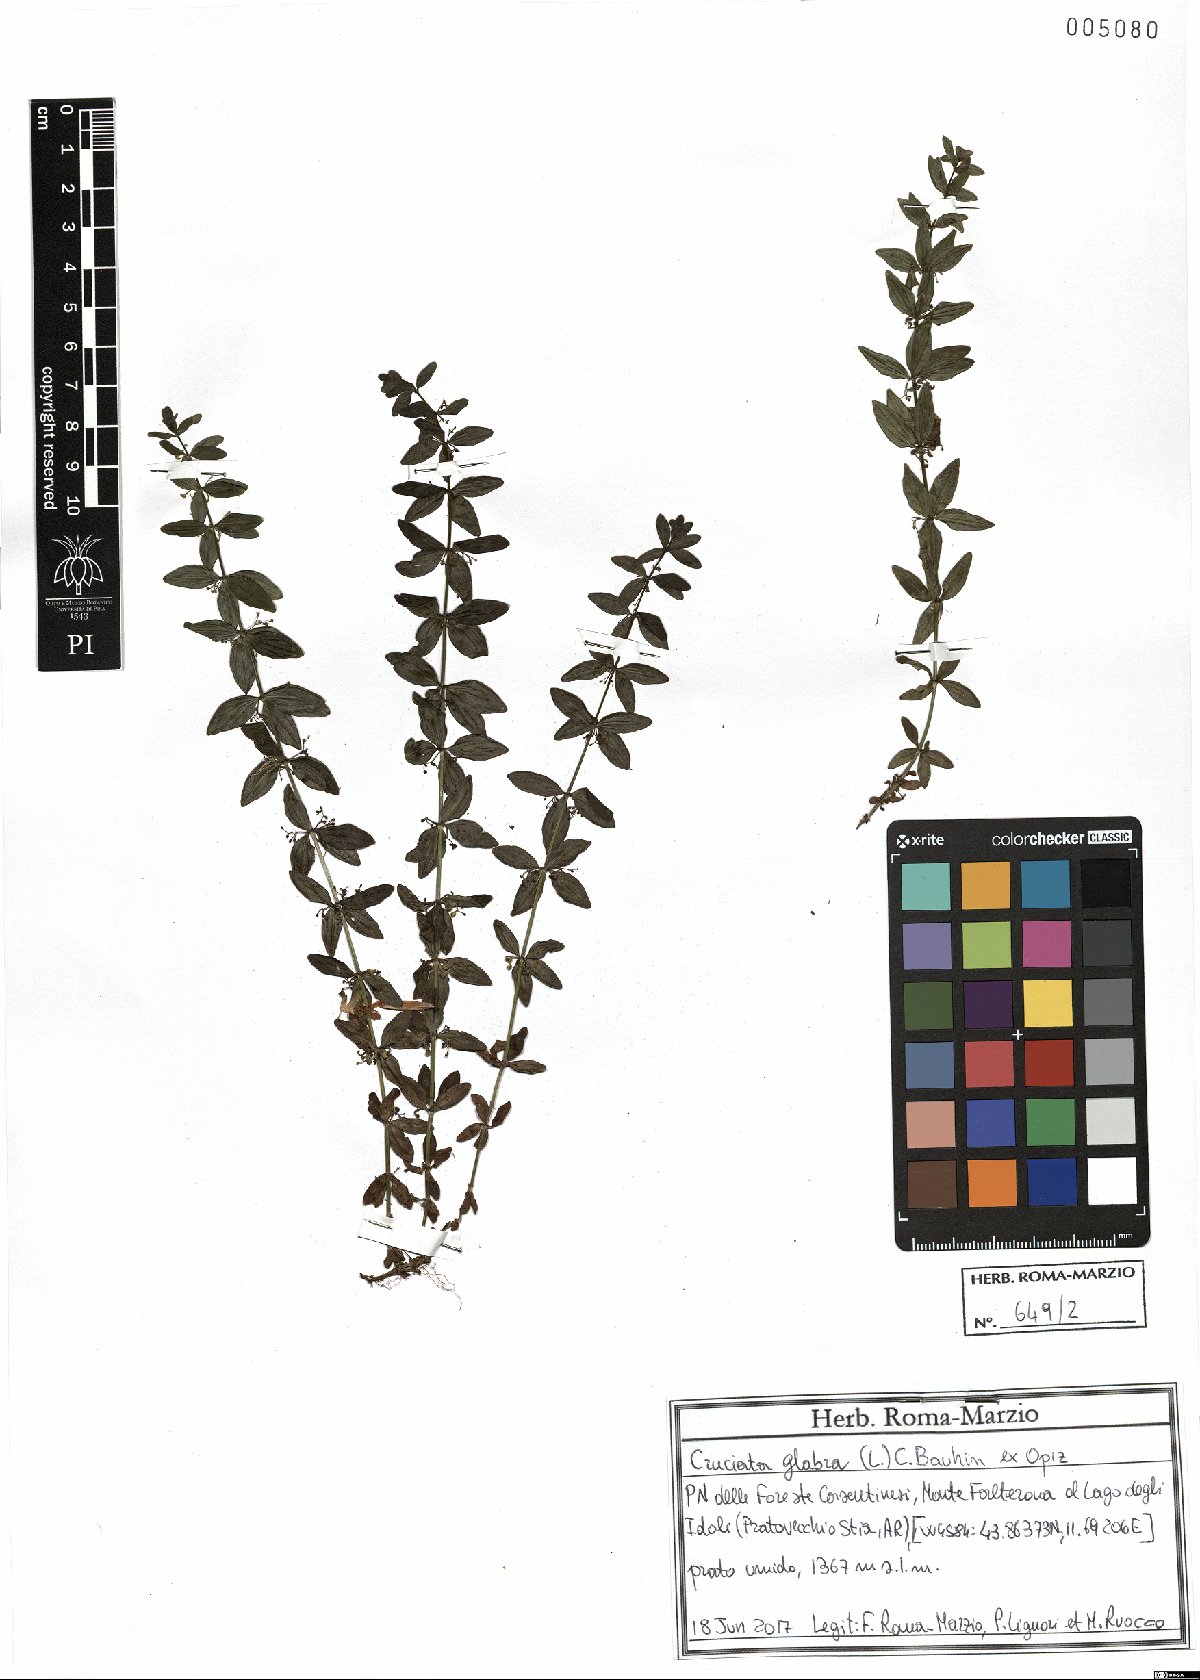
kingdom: Plantae
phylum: Tracheophyta
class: Magnoliopsida
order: Gentianales
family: Rubiaceae
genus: Cruciata
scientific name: Cruciata glabra
